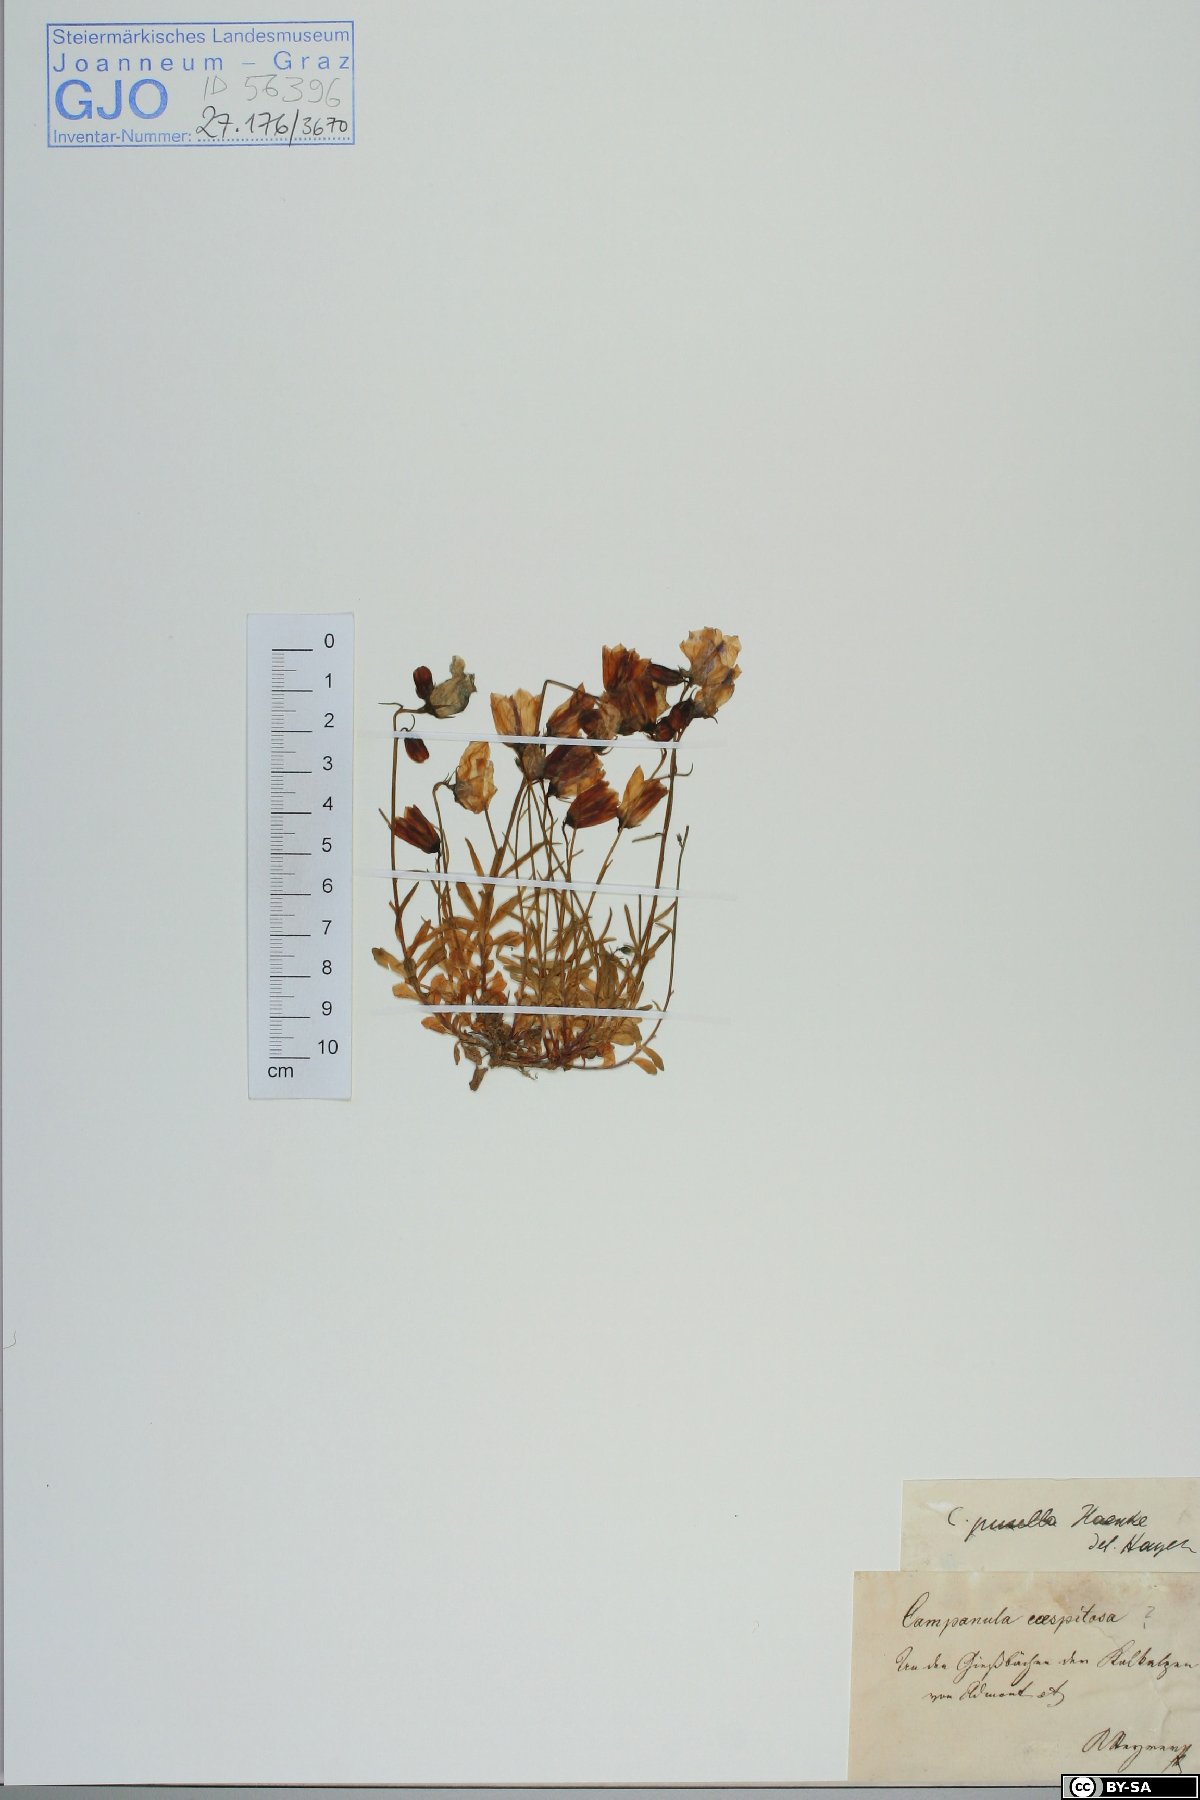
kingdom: Plantae
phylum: Tracheophyta
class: Magnoliopsida
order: Asterales
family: Campanulaceae
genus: Campanula
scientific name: Campanula cochleariifolia
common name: Fairies'-thimbles
